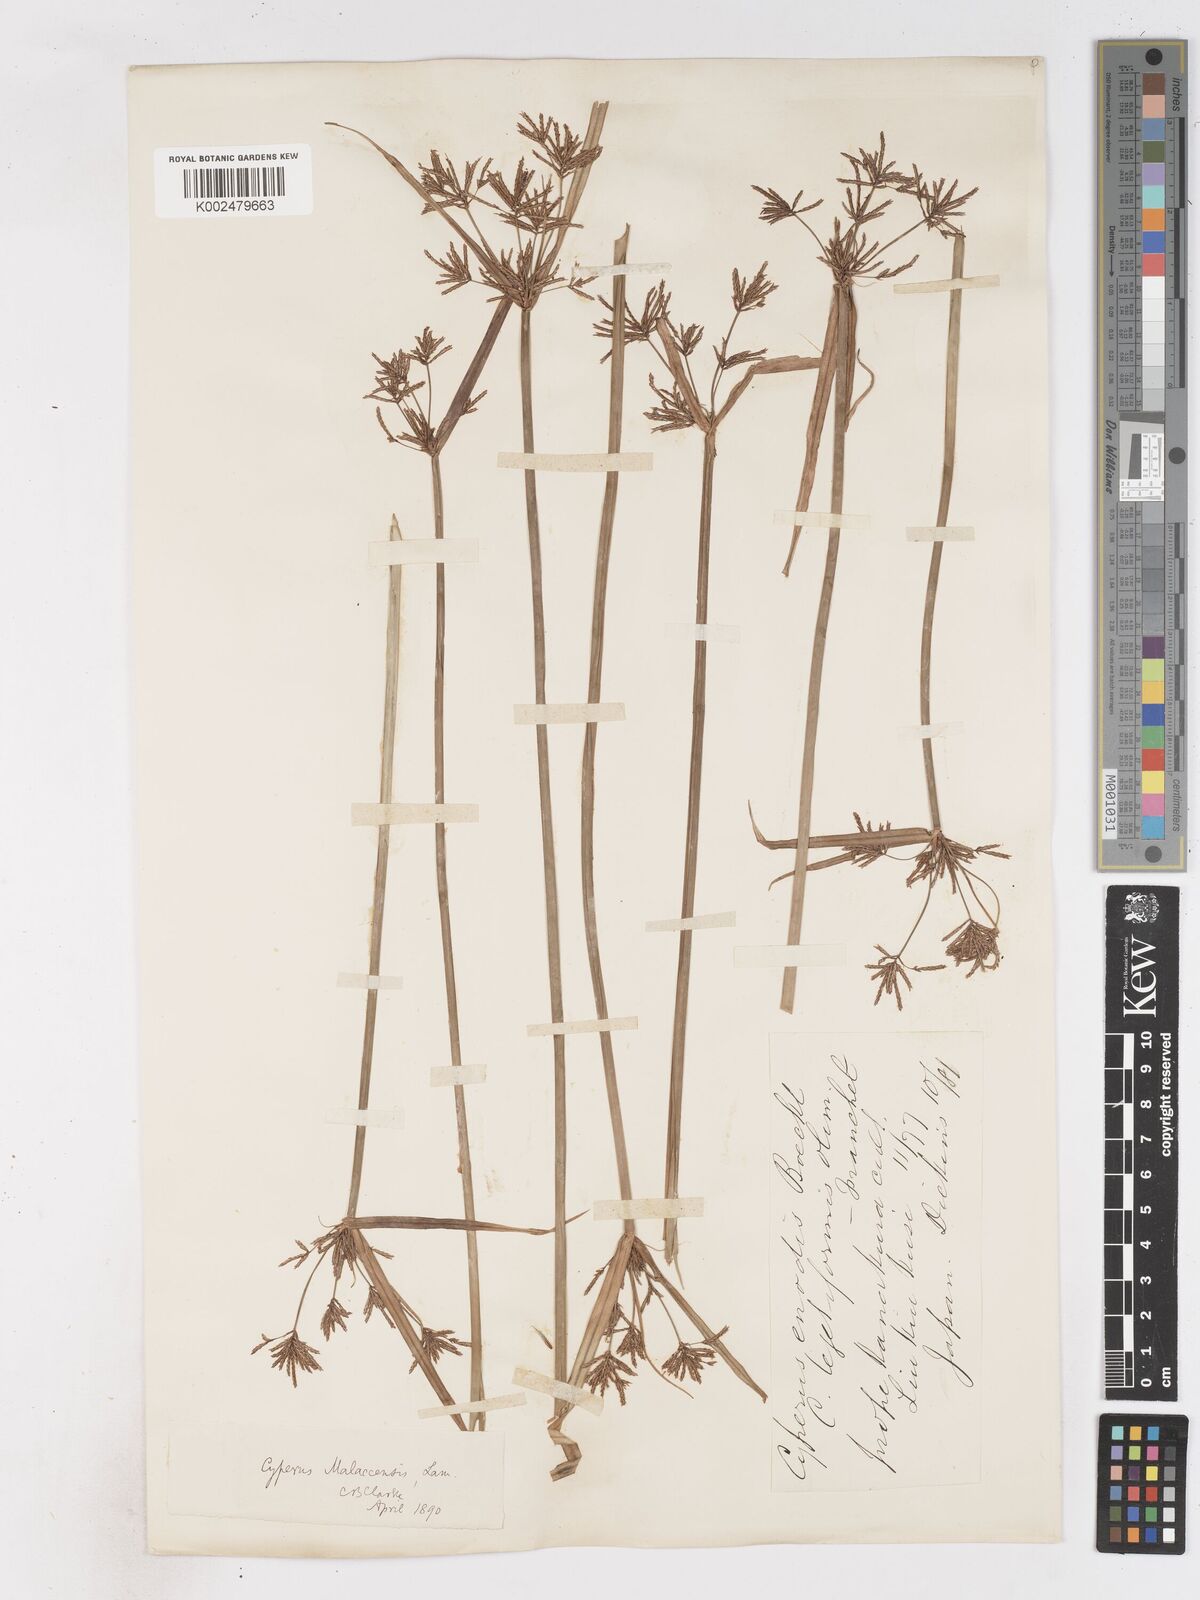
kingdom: Plantae
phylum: Tracheophyta
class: Liliopsida
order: Poales
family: Cyperaceae
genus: Cyperus
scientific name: Cyperus malaccensis
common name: Shichito matgrass
